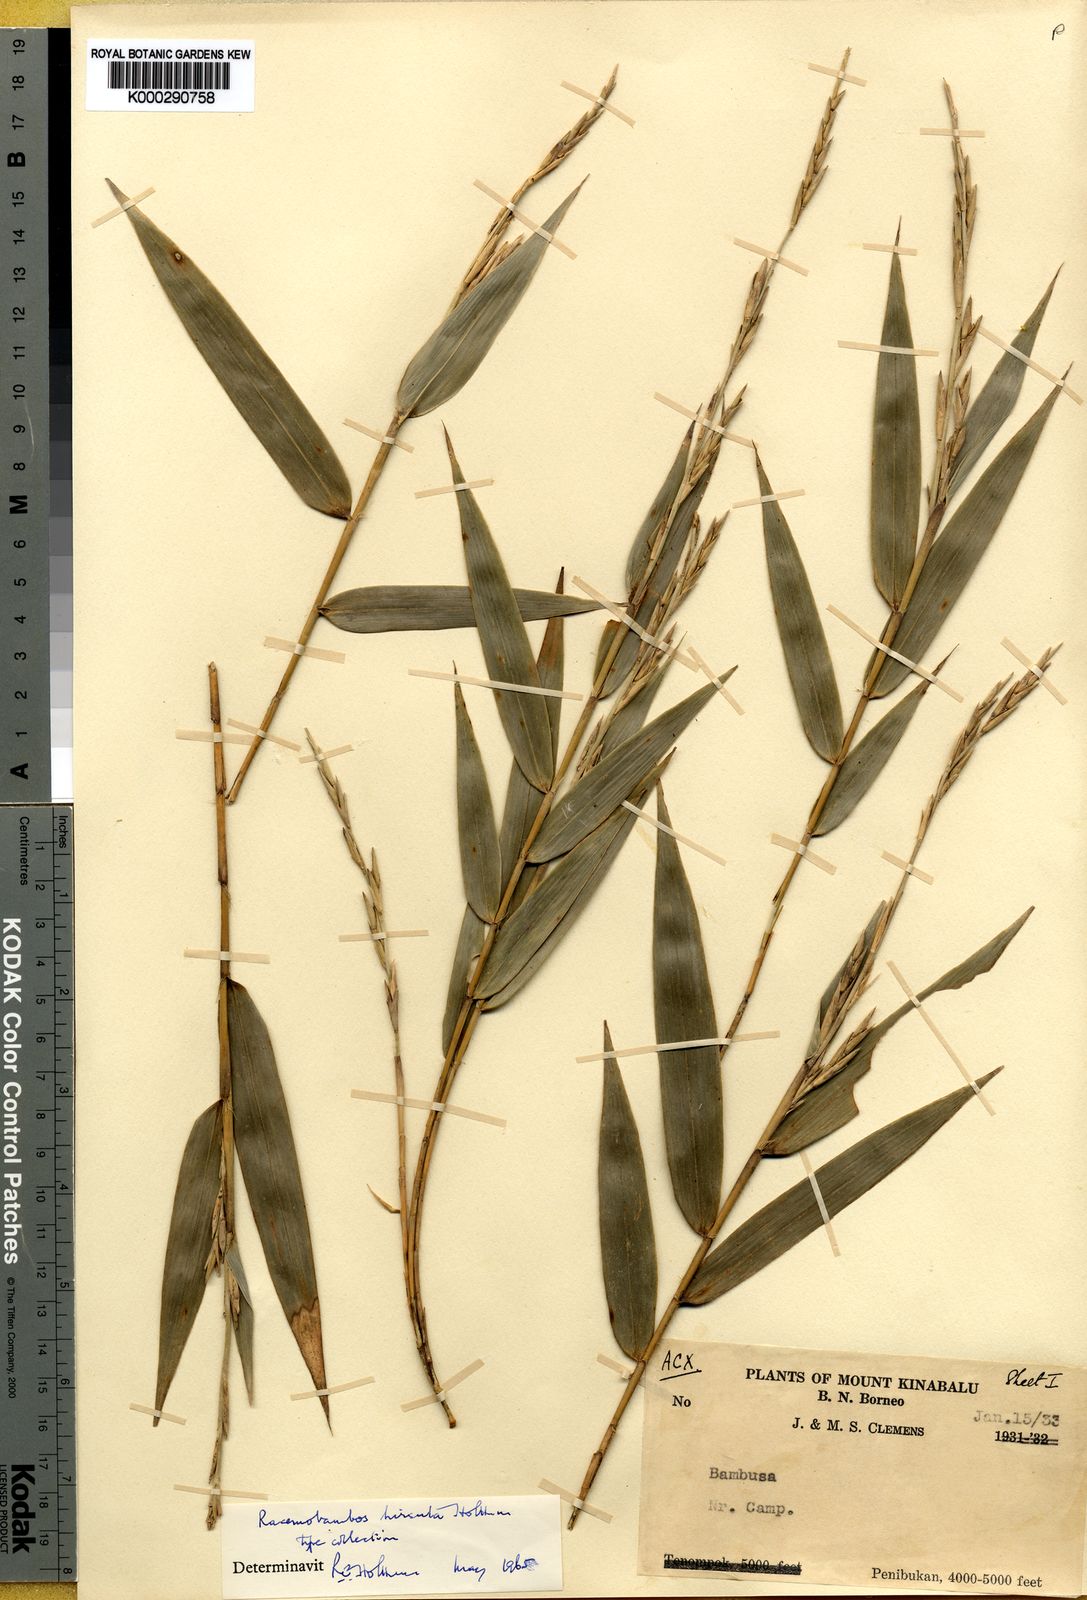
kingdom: Plantae
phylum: Tracheophyta
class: Liliopsida
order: Poales
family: Poaceae
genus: Racemobambos
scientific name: Racemobambos hirsuta
